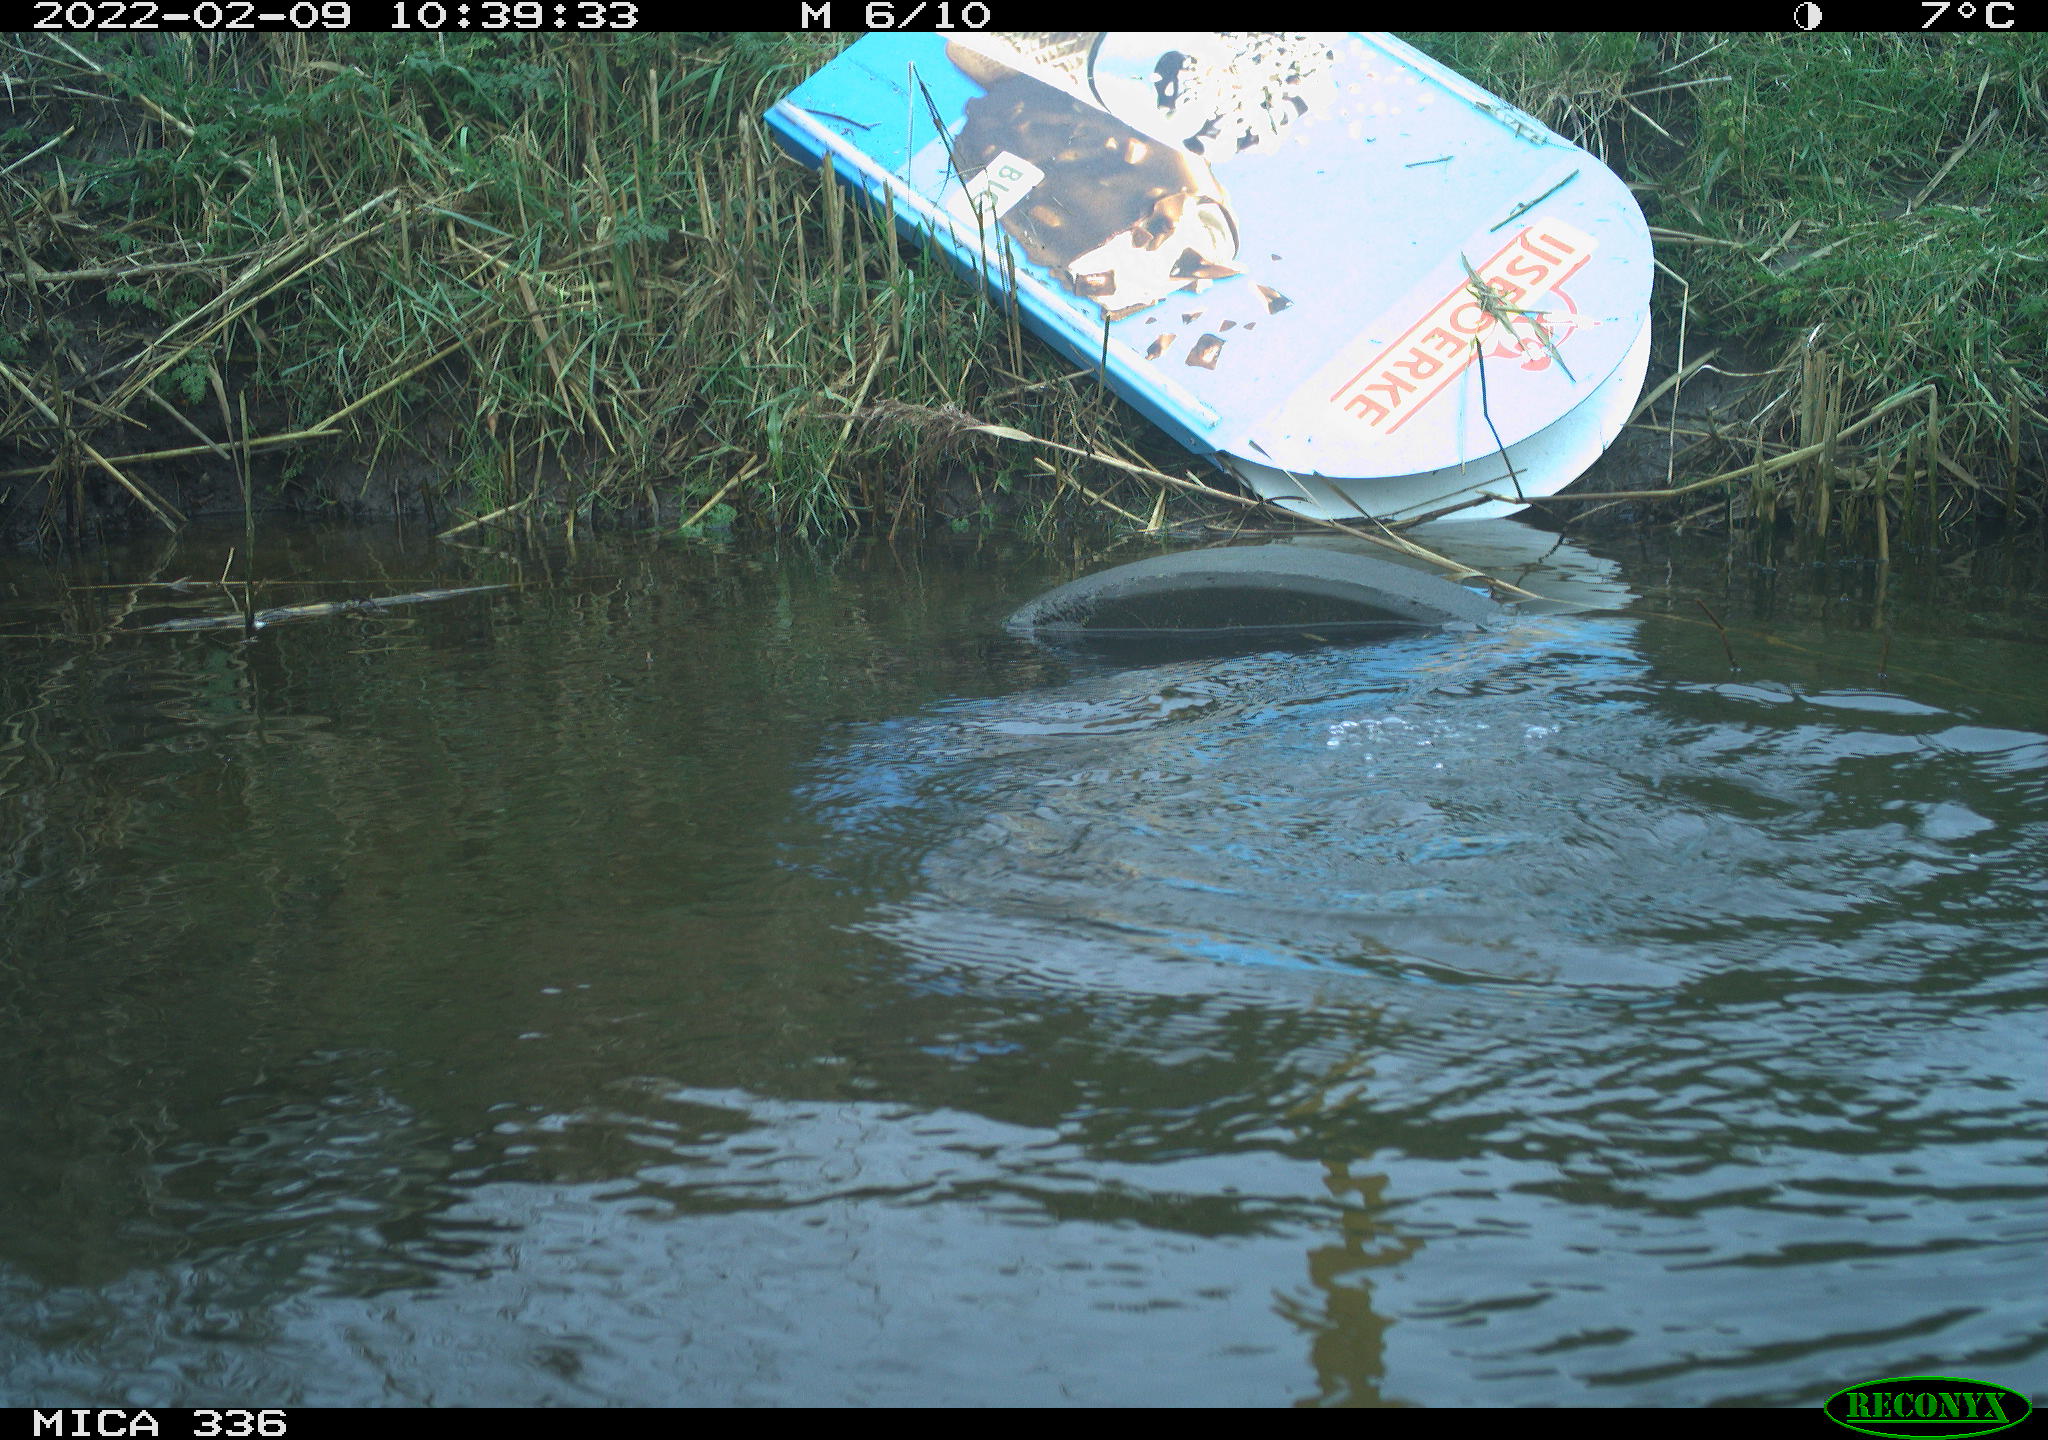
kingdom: Animalia
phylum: Chordata
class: Aves
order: Suliformes
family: Phalacrocoracidae
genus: Phalacrocorax
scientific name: Phalacrocorax carbo
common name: Great cormorant
